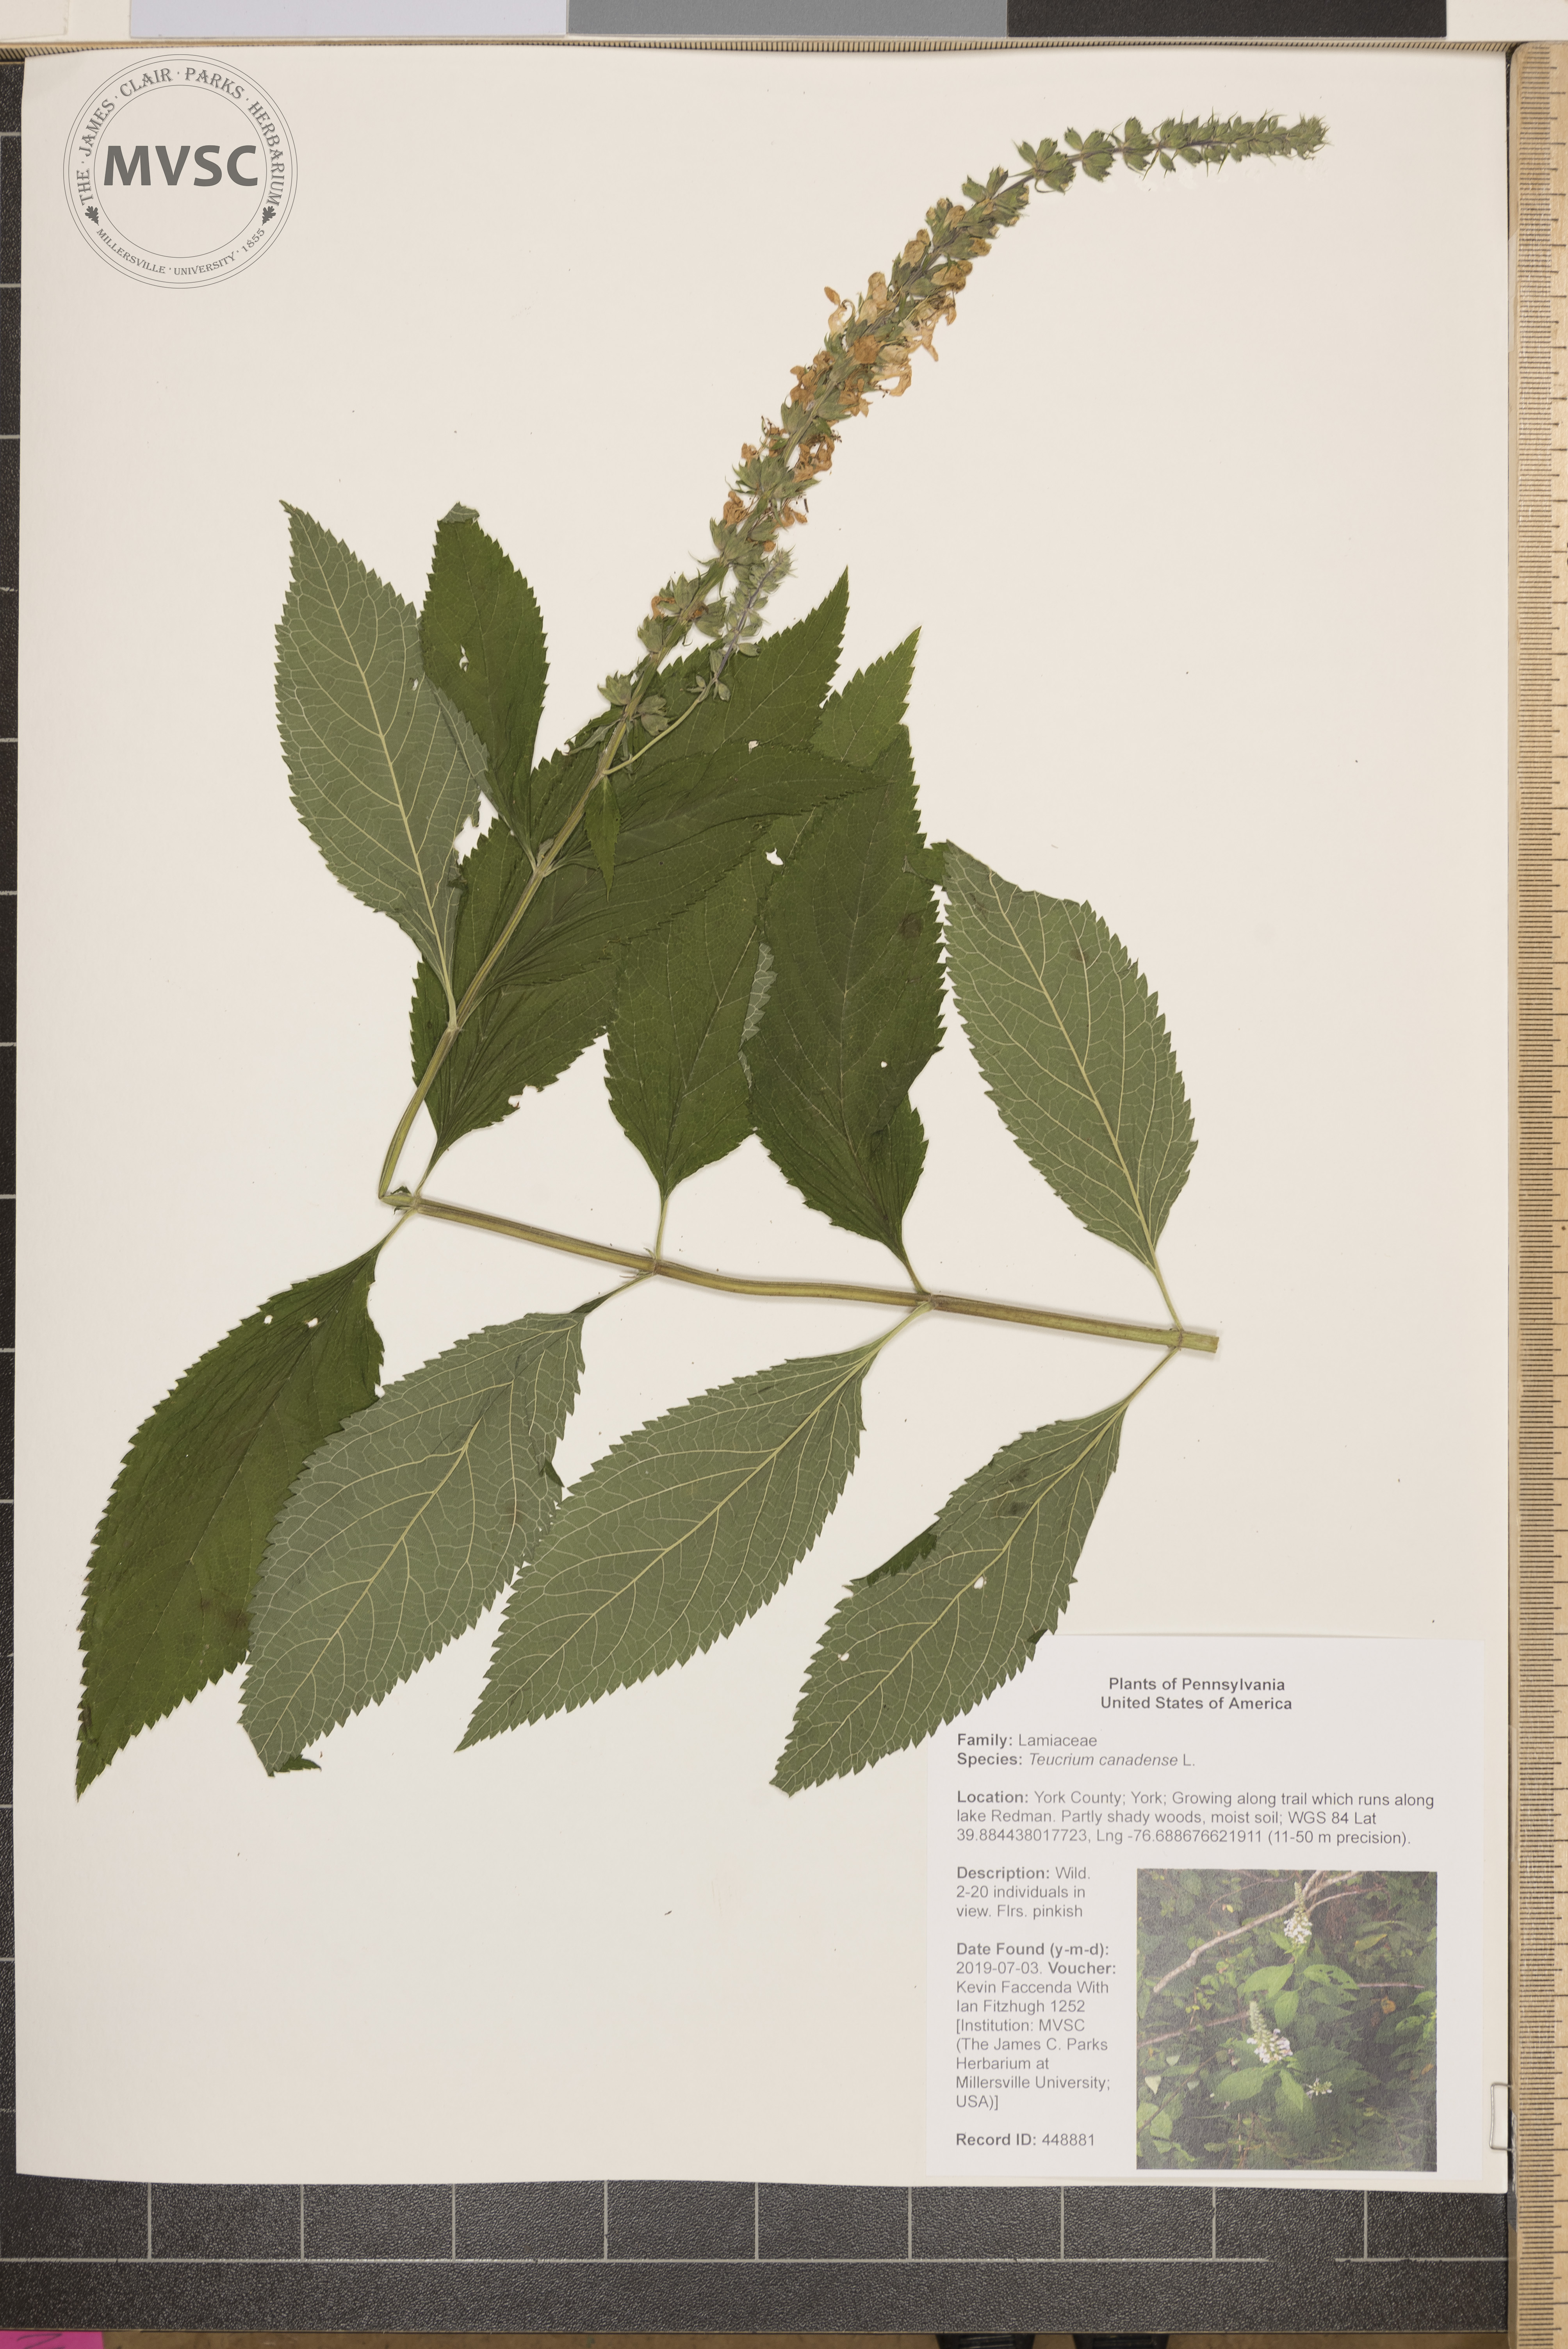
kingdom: Plantae
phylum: Tracheophyta
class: Magnoliopsida
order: Lamiales
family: Lamiaceae
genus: Teucrium
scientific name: Teucrium canadense
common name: American germander
